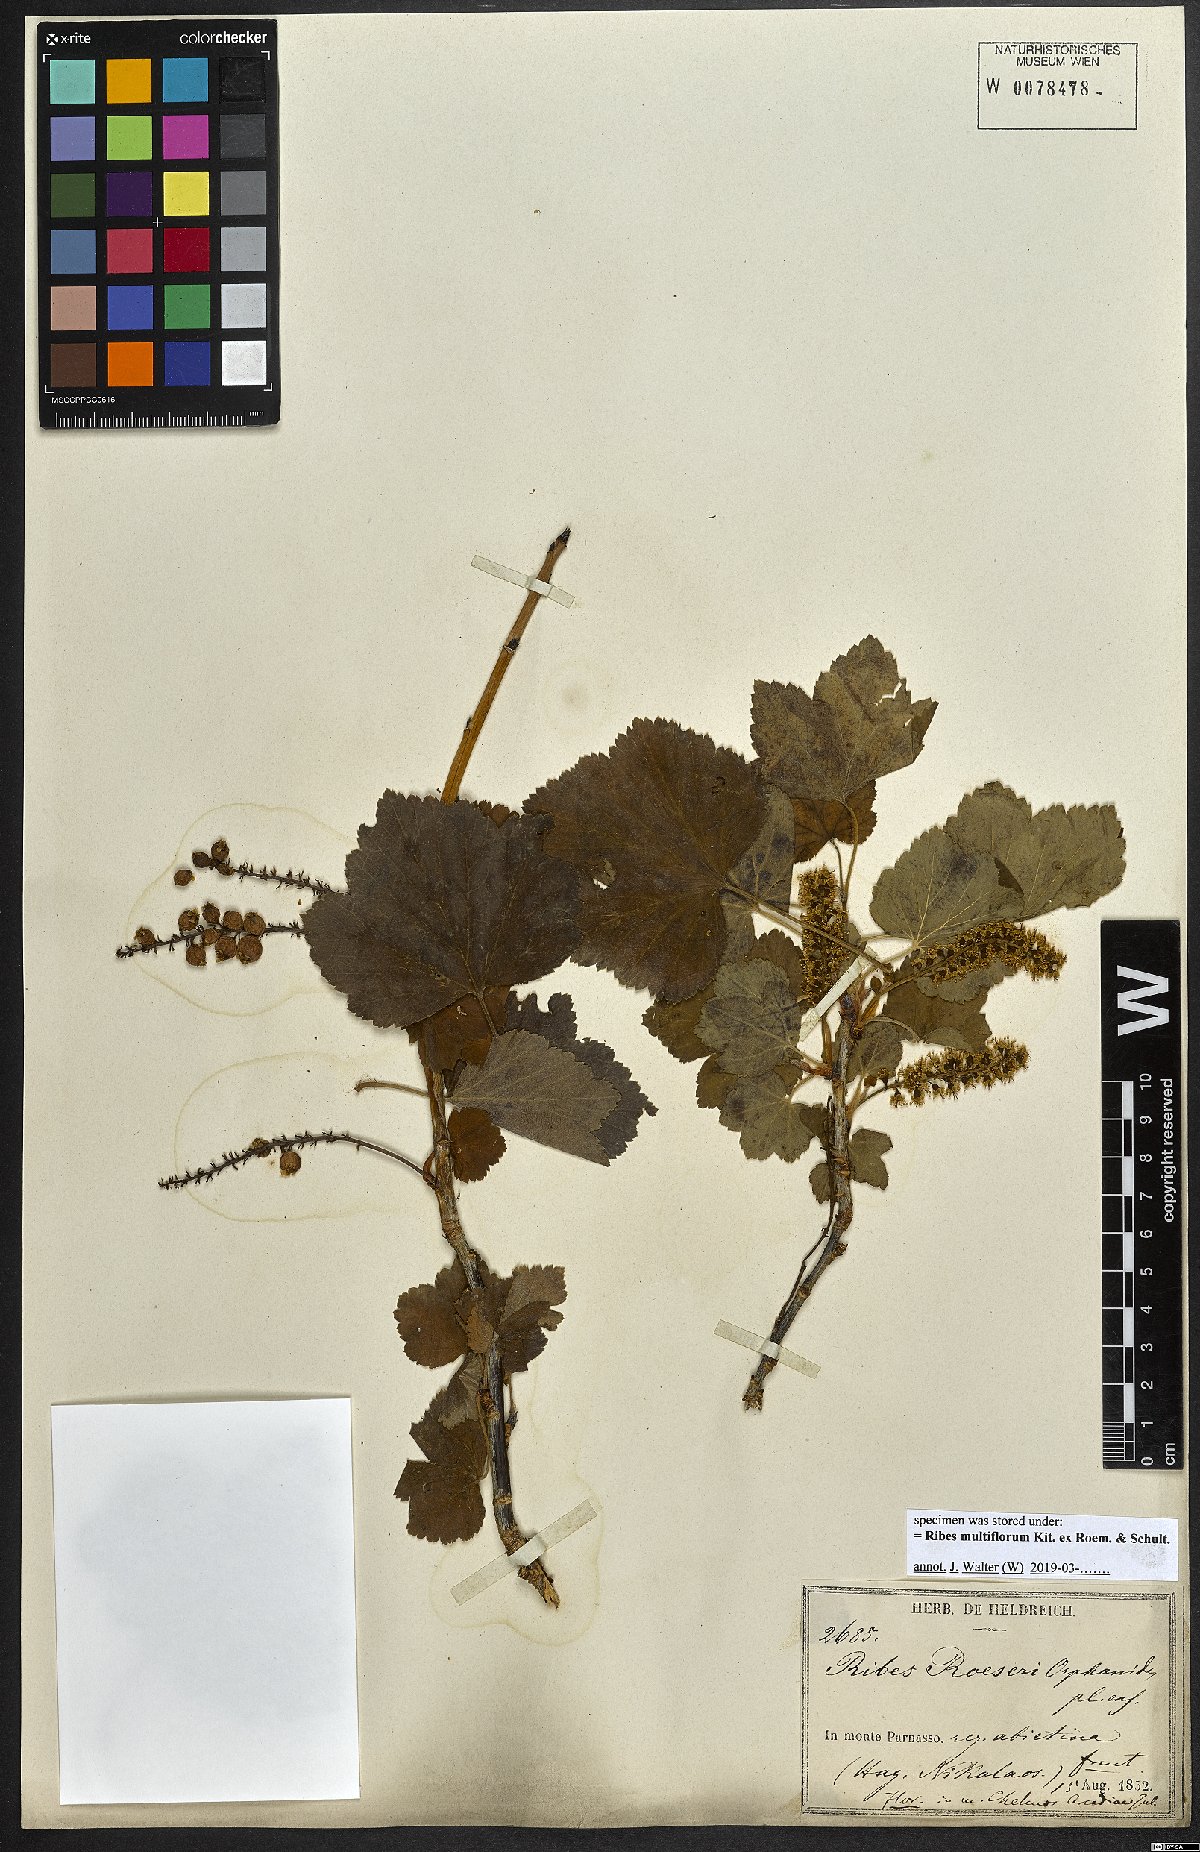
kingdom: Plantae
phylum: Tracheophyta
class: Magnoliopsida
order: Saxifragales
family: Grossulariaceae
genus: Ribes
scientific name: Ribes multiflorum
